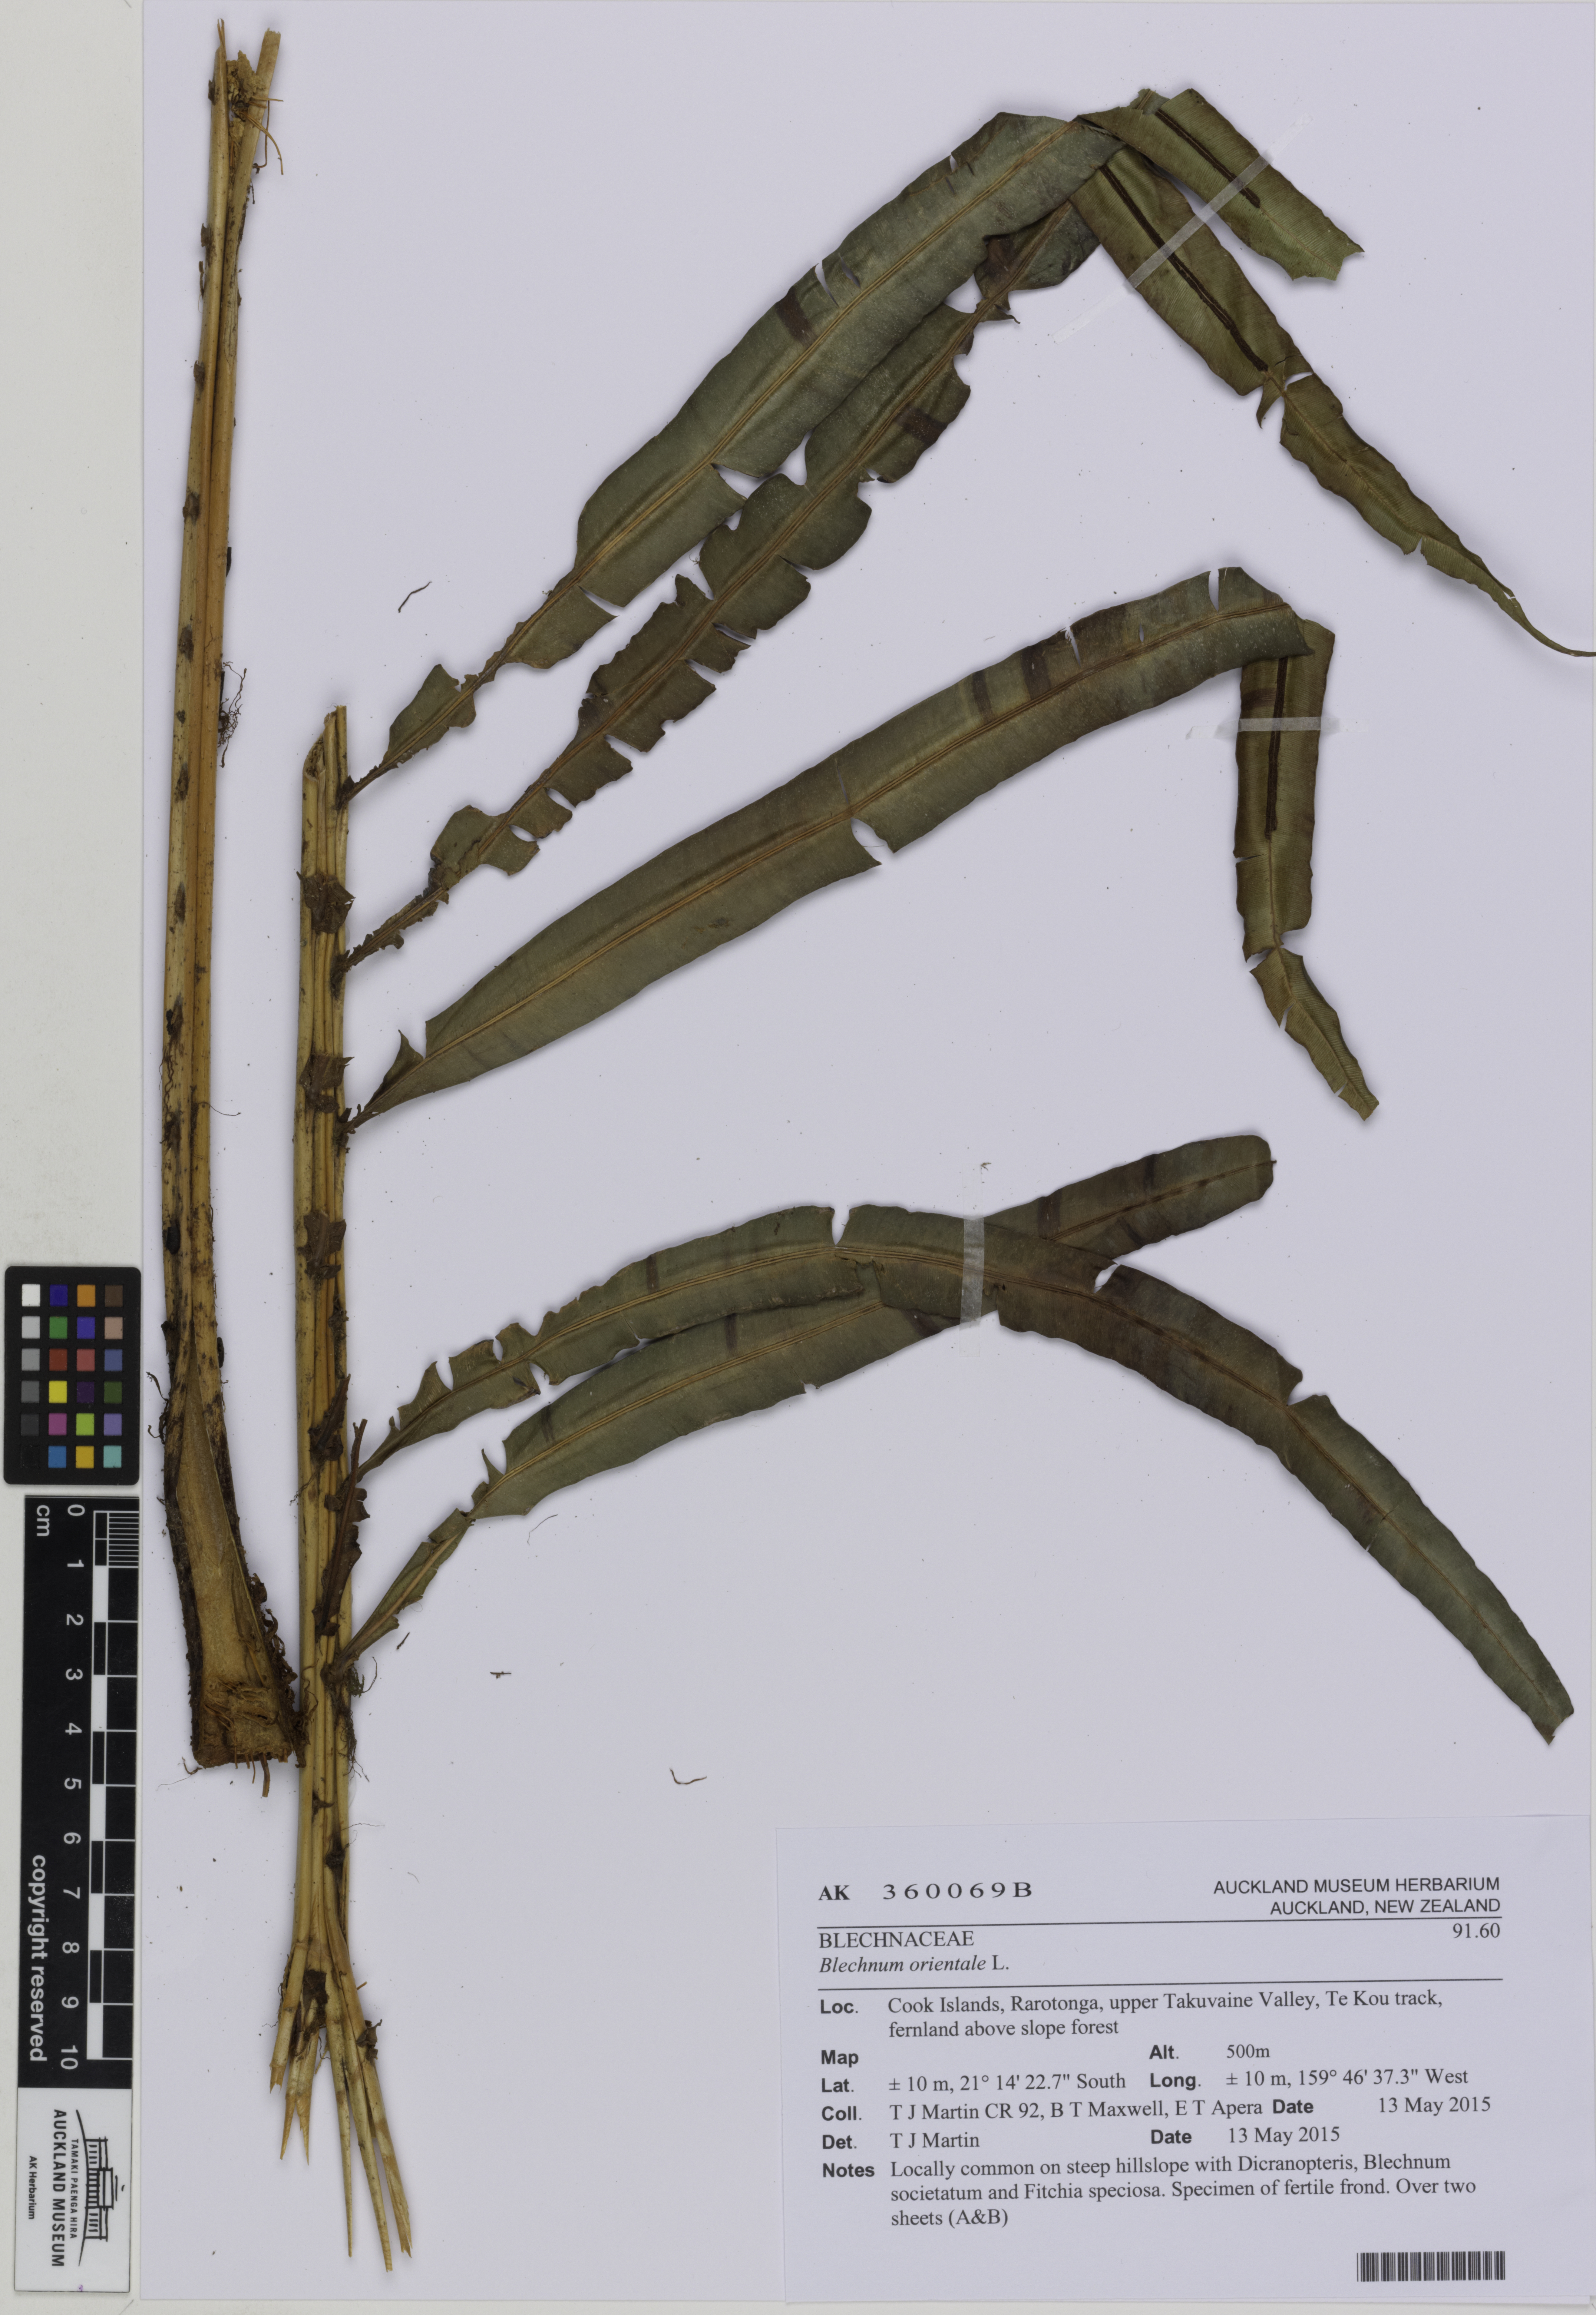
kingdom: Plantae
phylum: Tracheophyta
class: Polypodiopsida
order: Polypodiales
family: Blechnaceae
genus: Blechnopsis
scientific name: Blechnopsis orientalis
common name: Oriental blechnum
